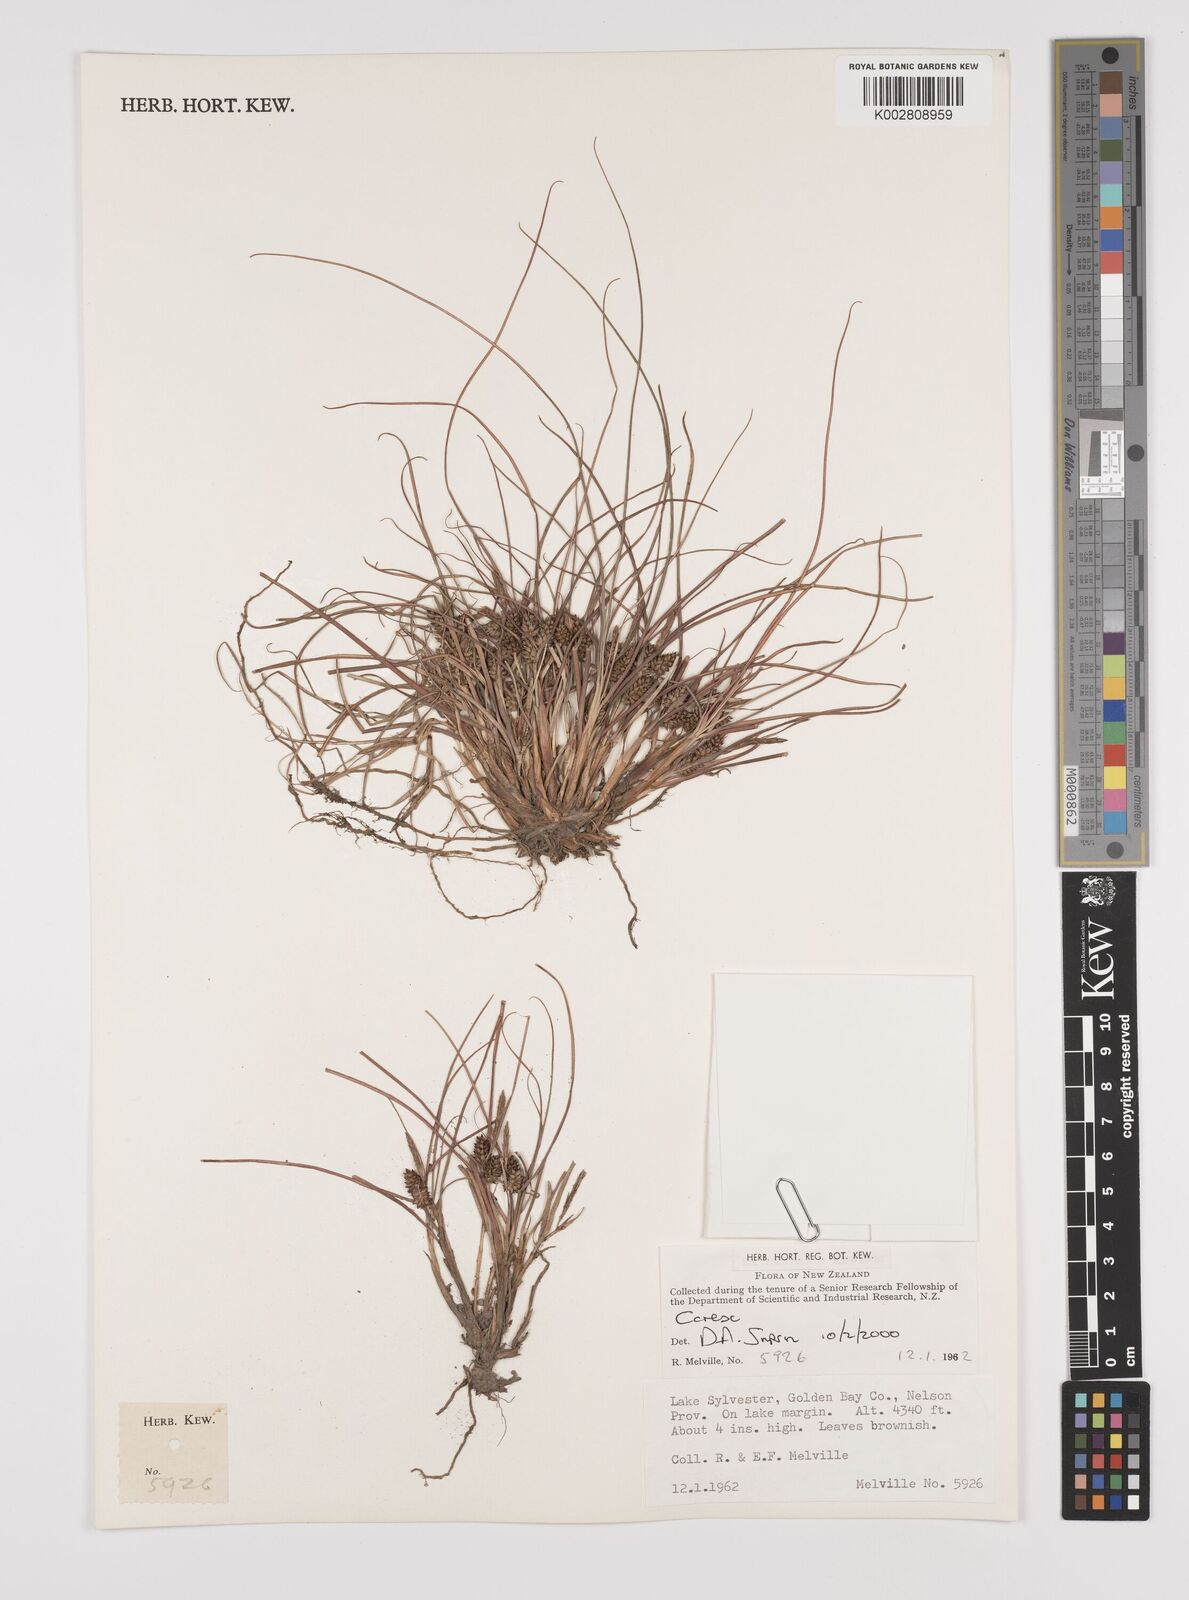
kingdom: Plantae
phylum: Tracheophyta
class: Liliopsida
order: Poales
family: Cyperaceae
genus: Carex
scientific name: Carex
